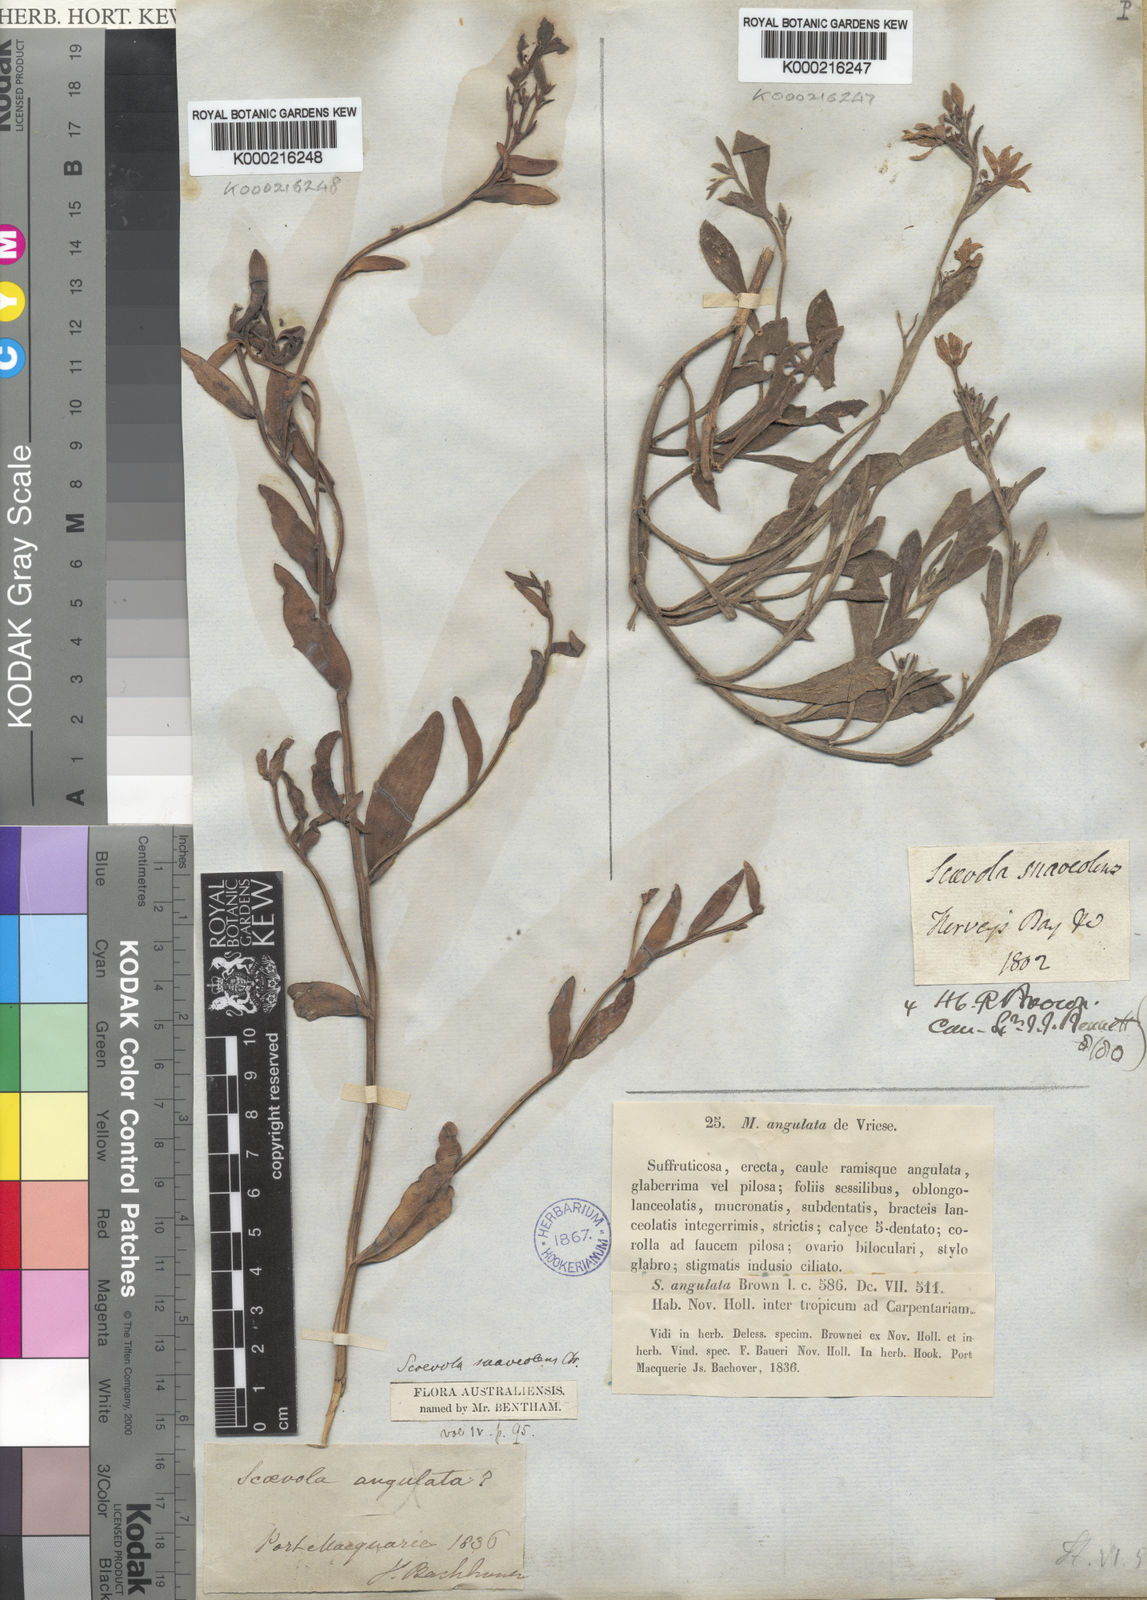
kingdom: Plantae
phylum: Tracheophyta
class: Magnoliopsida
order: Asterales
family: Goodeniaceae
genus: Scaevola
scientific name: Scaevola calendulacea
